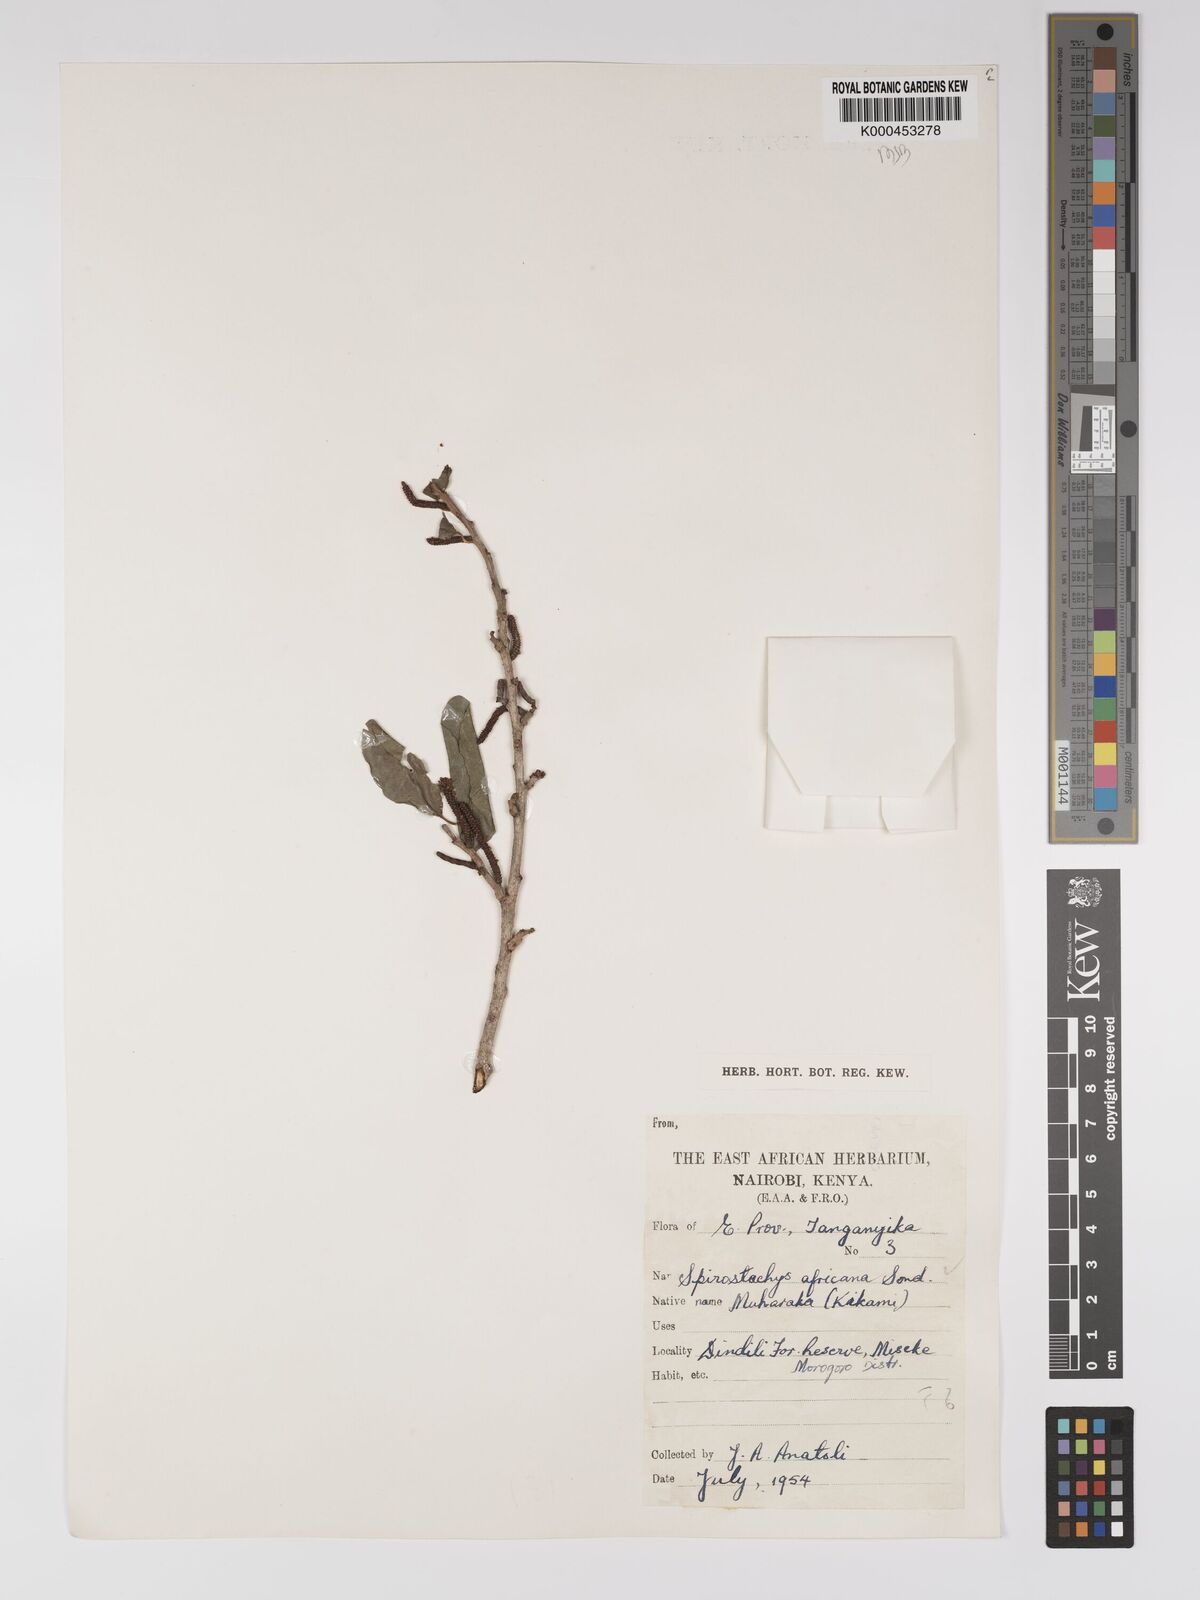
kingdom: Plantae
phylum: Tracheophyta
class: Magnoliopsida
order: Malpighiales
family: Euphorbiaceae
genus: Spirostachys
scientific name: Spirostachys africana
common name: Tamboti
